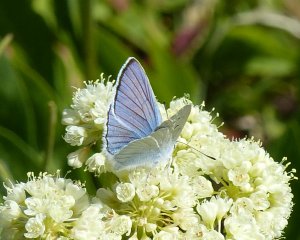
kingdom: Animalia
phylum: Arthropoda
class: Insecta
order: Lepidoptera
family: Lycaenidae
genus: Lycaena
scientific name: Lycaena heteronea
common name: Blue Copper
